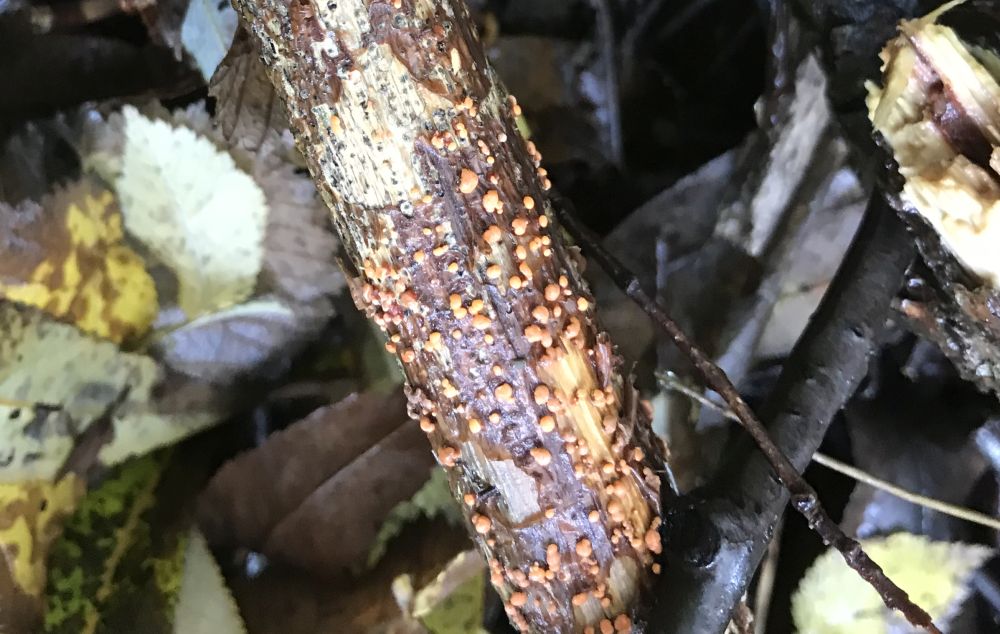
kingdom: Fungi
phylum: Ascomycota
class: Sordariomycetes
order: Hypocreales
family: Nectriaceae
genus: Nectria
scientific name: Nectria cinnabarina
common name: almindelig cinnobersvamp
